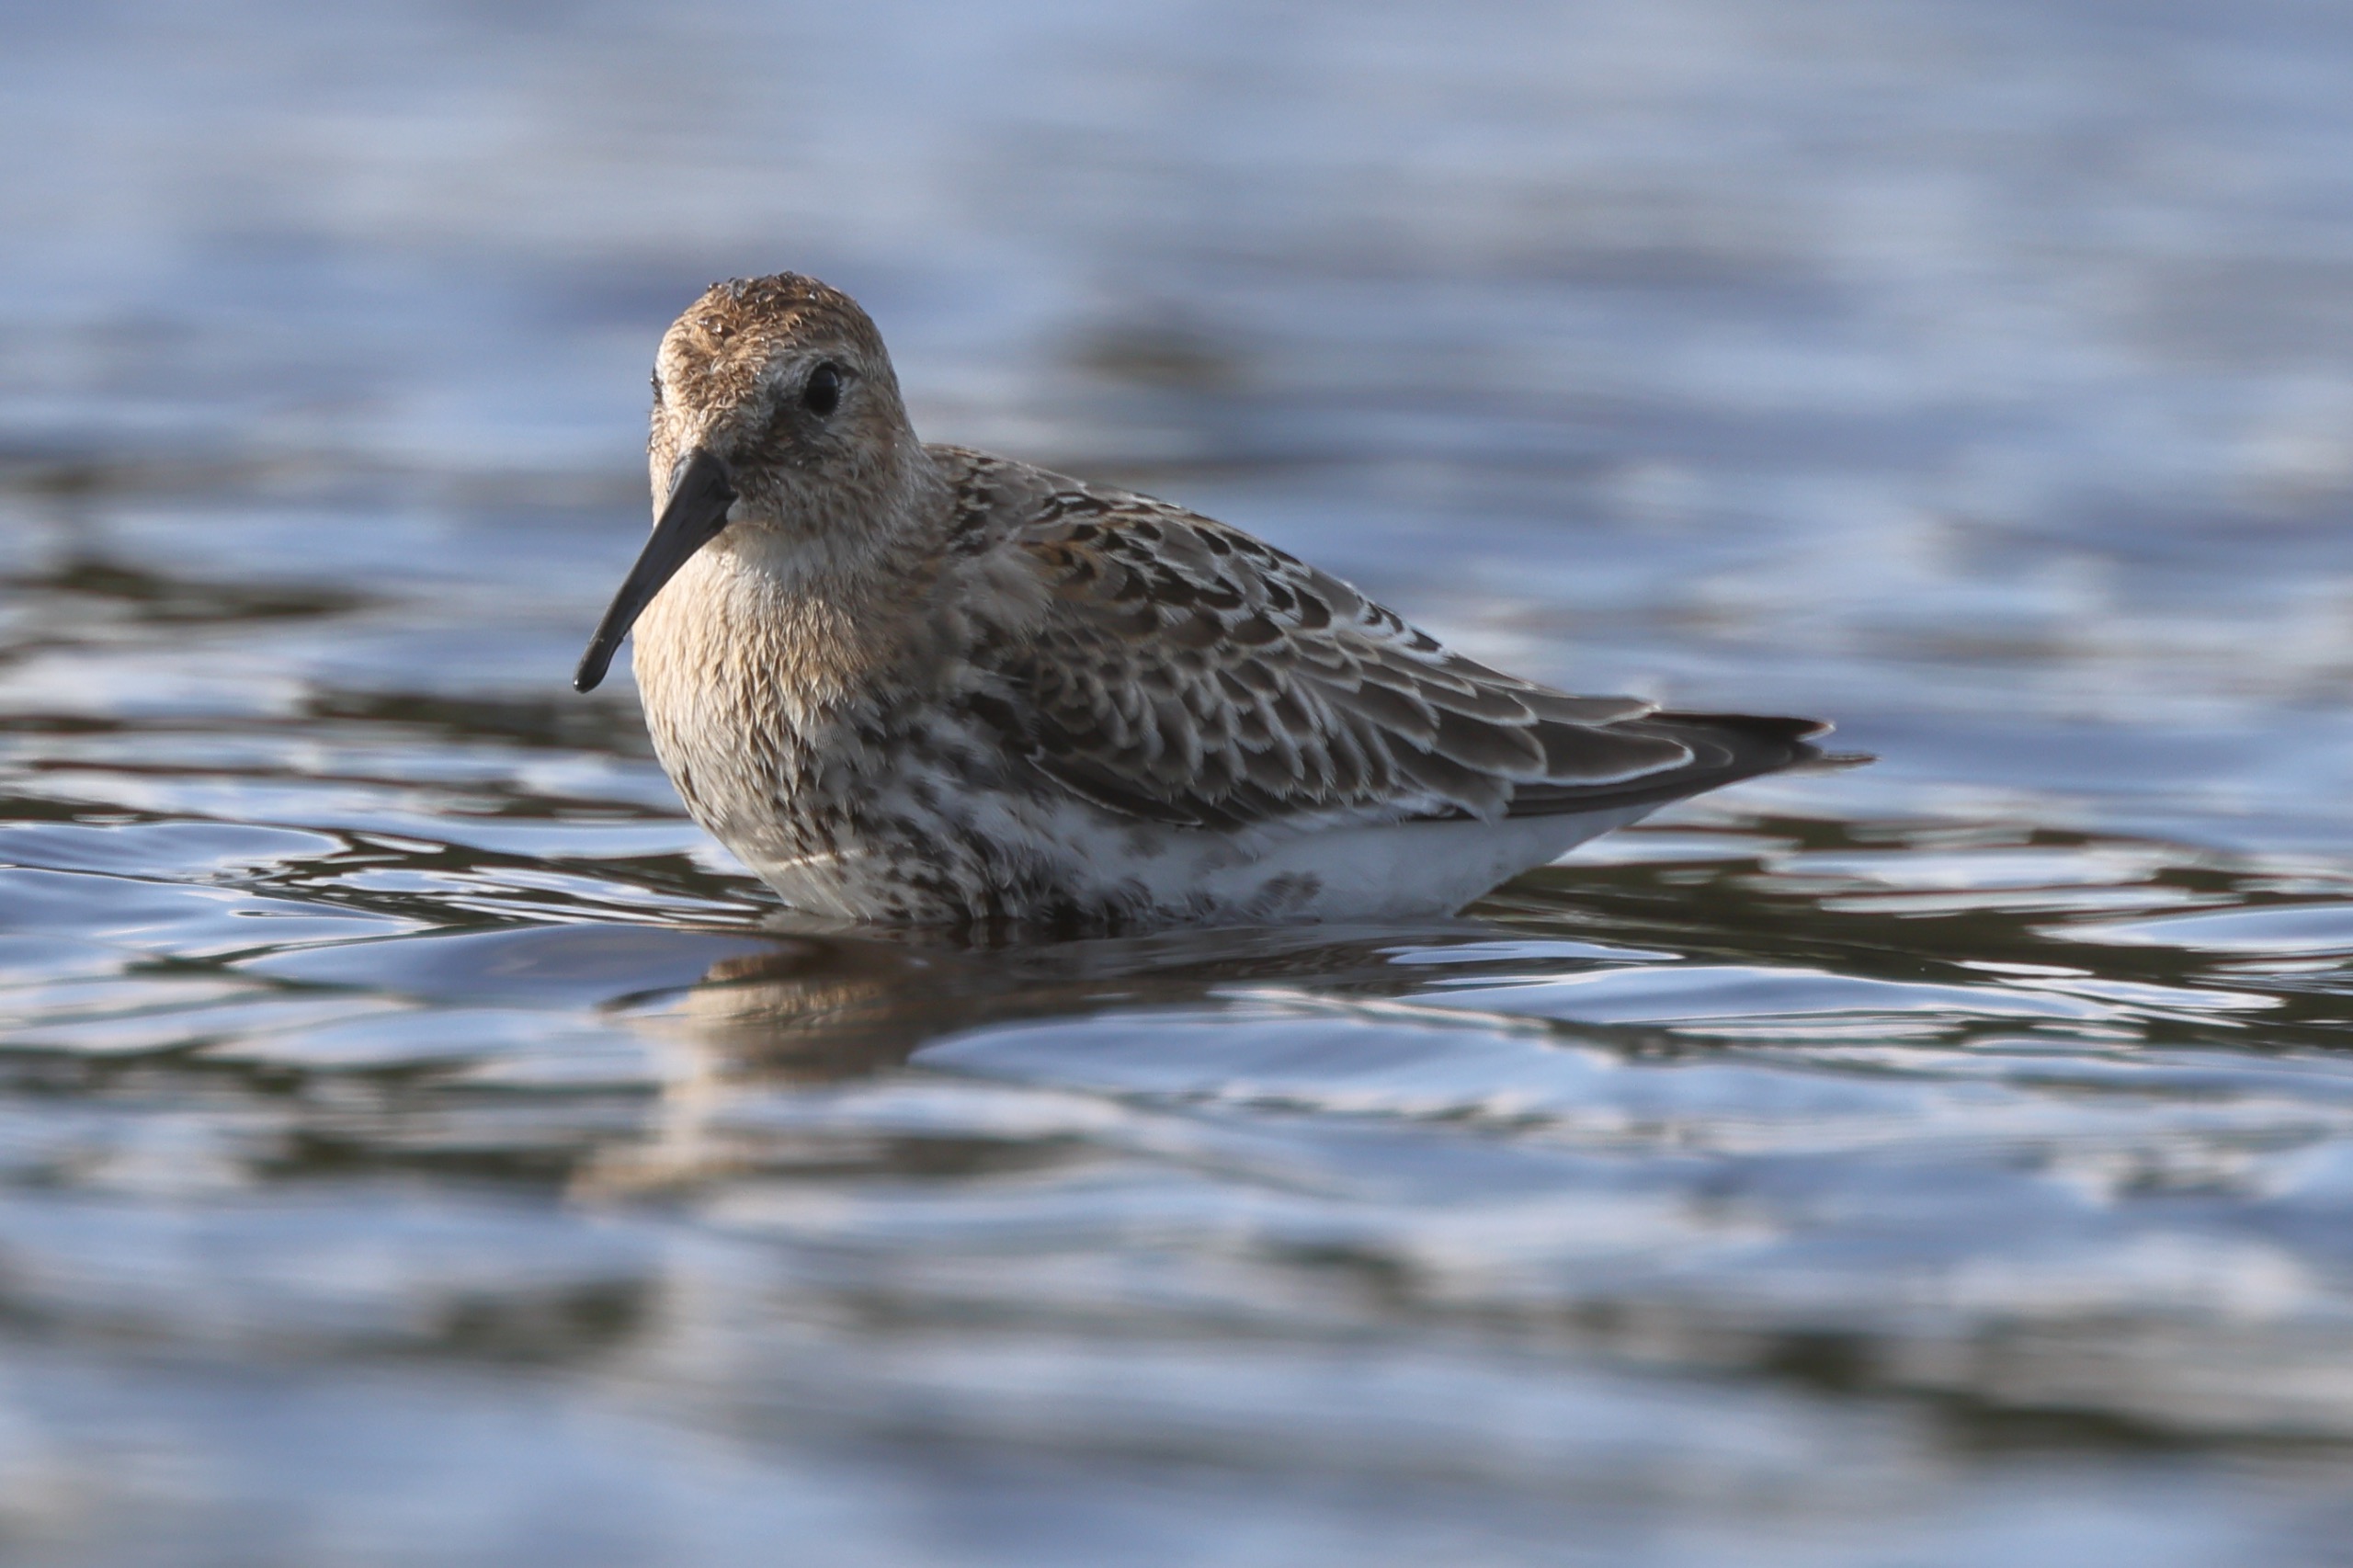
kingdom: Animalia
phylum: Chordata
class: Aves
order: Charadriiformes
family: Scolopacidae
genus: Calidris
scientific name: Calidris alpina
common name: Almindelig ryle
